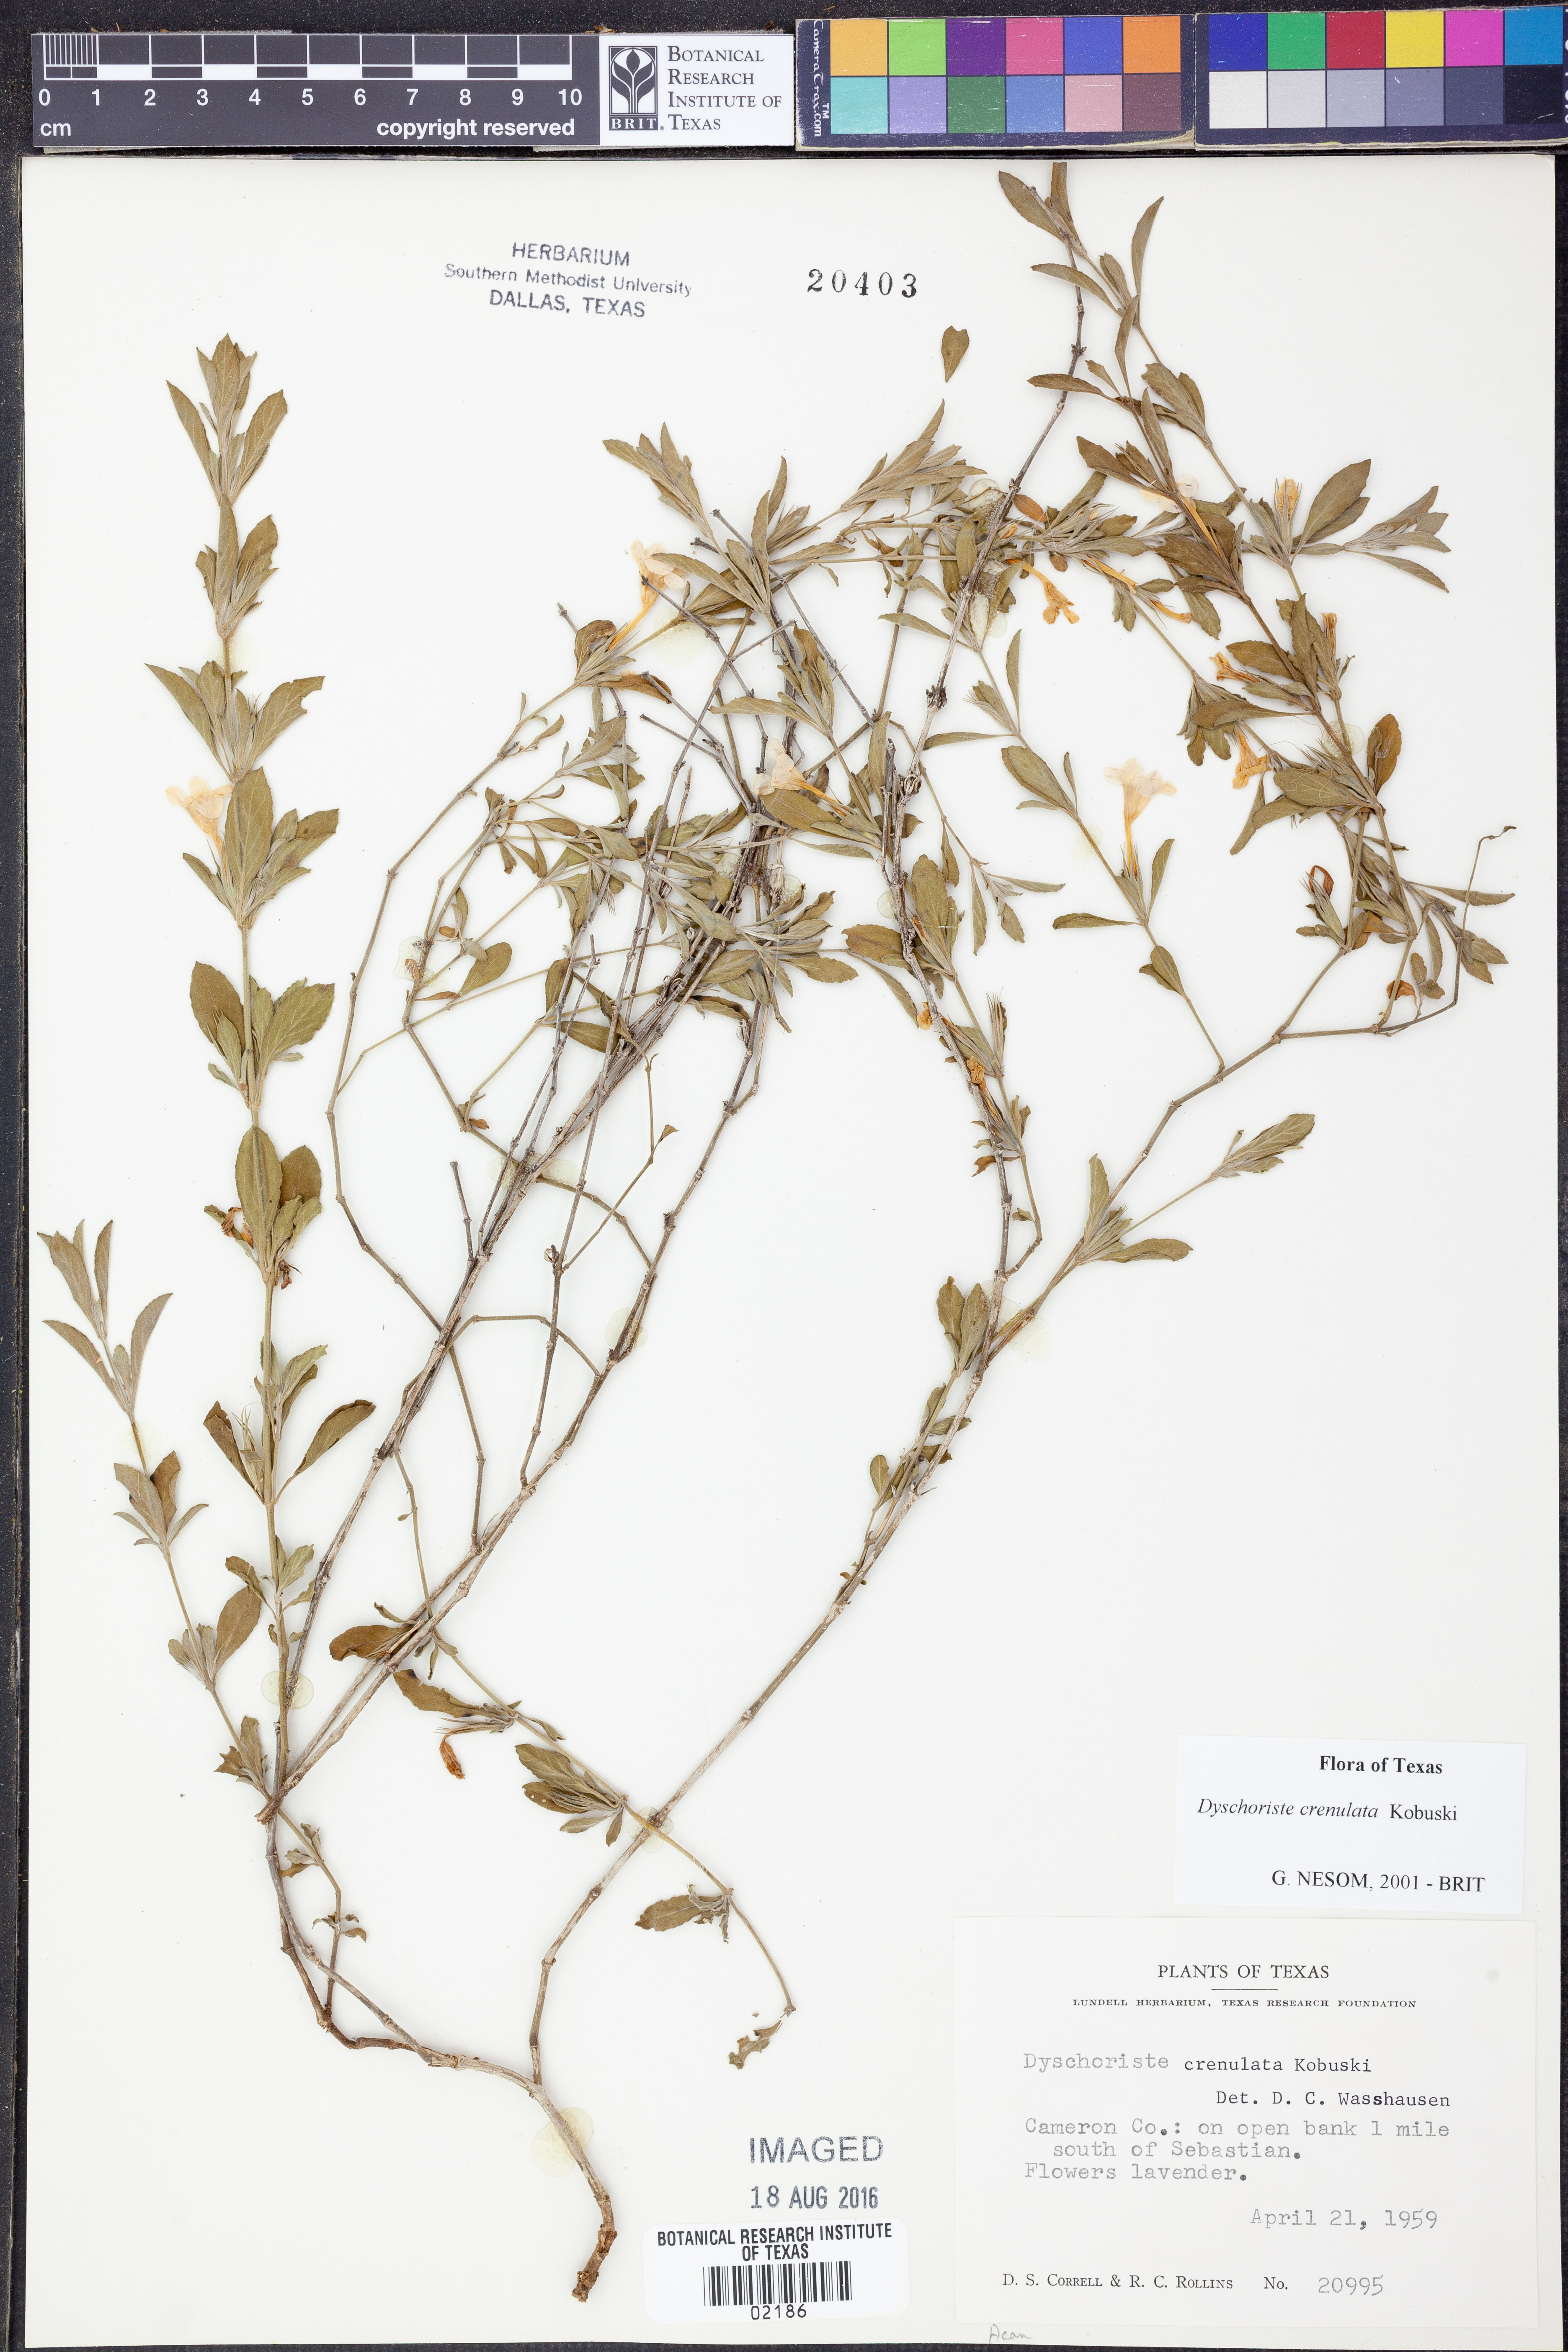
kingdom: Plantae
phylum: Tracheophyta
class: Magnoliopsida
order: Lamiales
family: Acanthaceae
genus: Dyschoriste
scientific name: Dyschoriste crenulata
